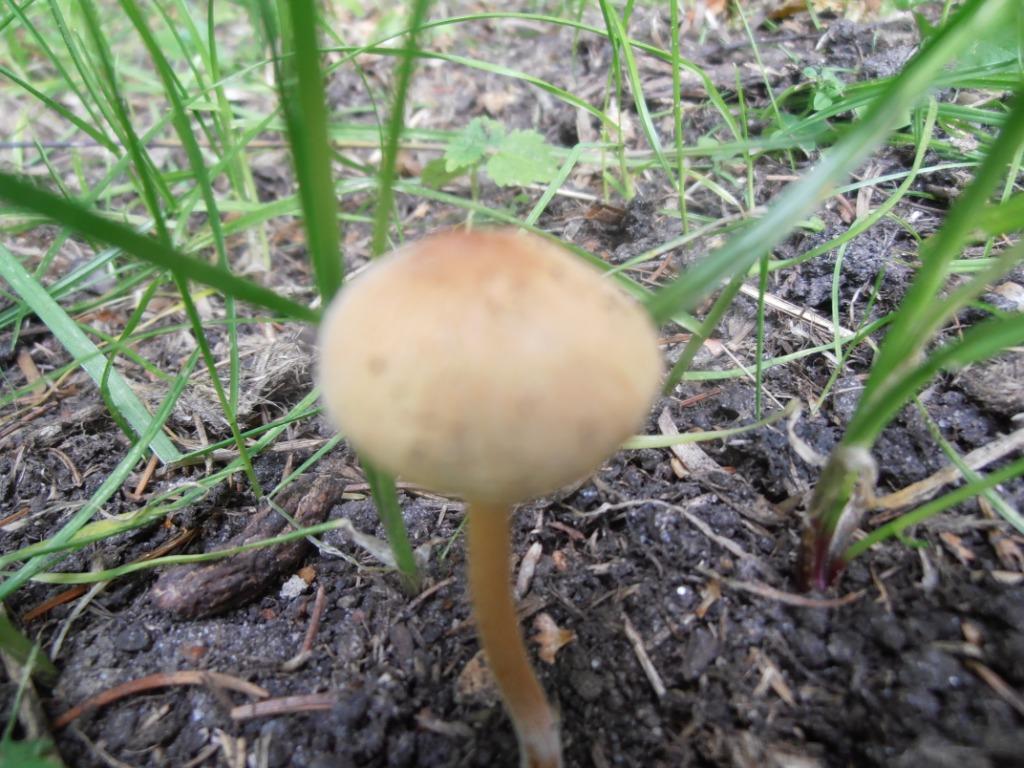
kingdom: Fungi
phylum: Basidiomycota
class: Agaricomycetes
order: Agaricales
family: Bolbitiaceae
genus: Bolbitius
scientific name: Bolbitius titubans
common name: almindelig gulhat
